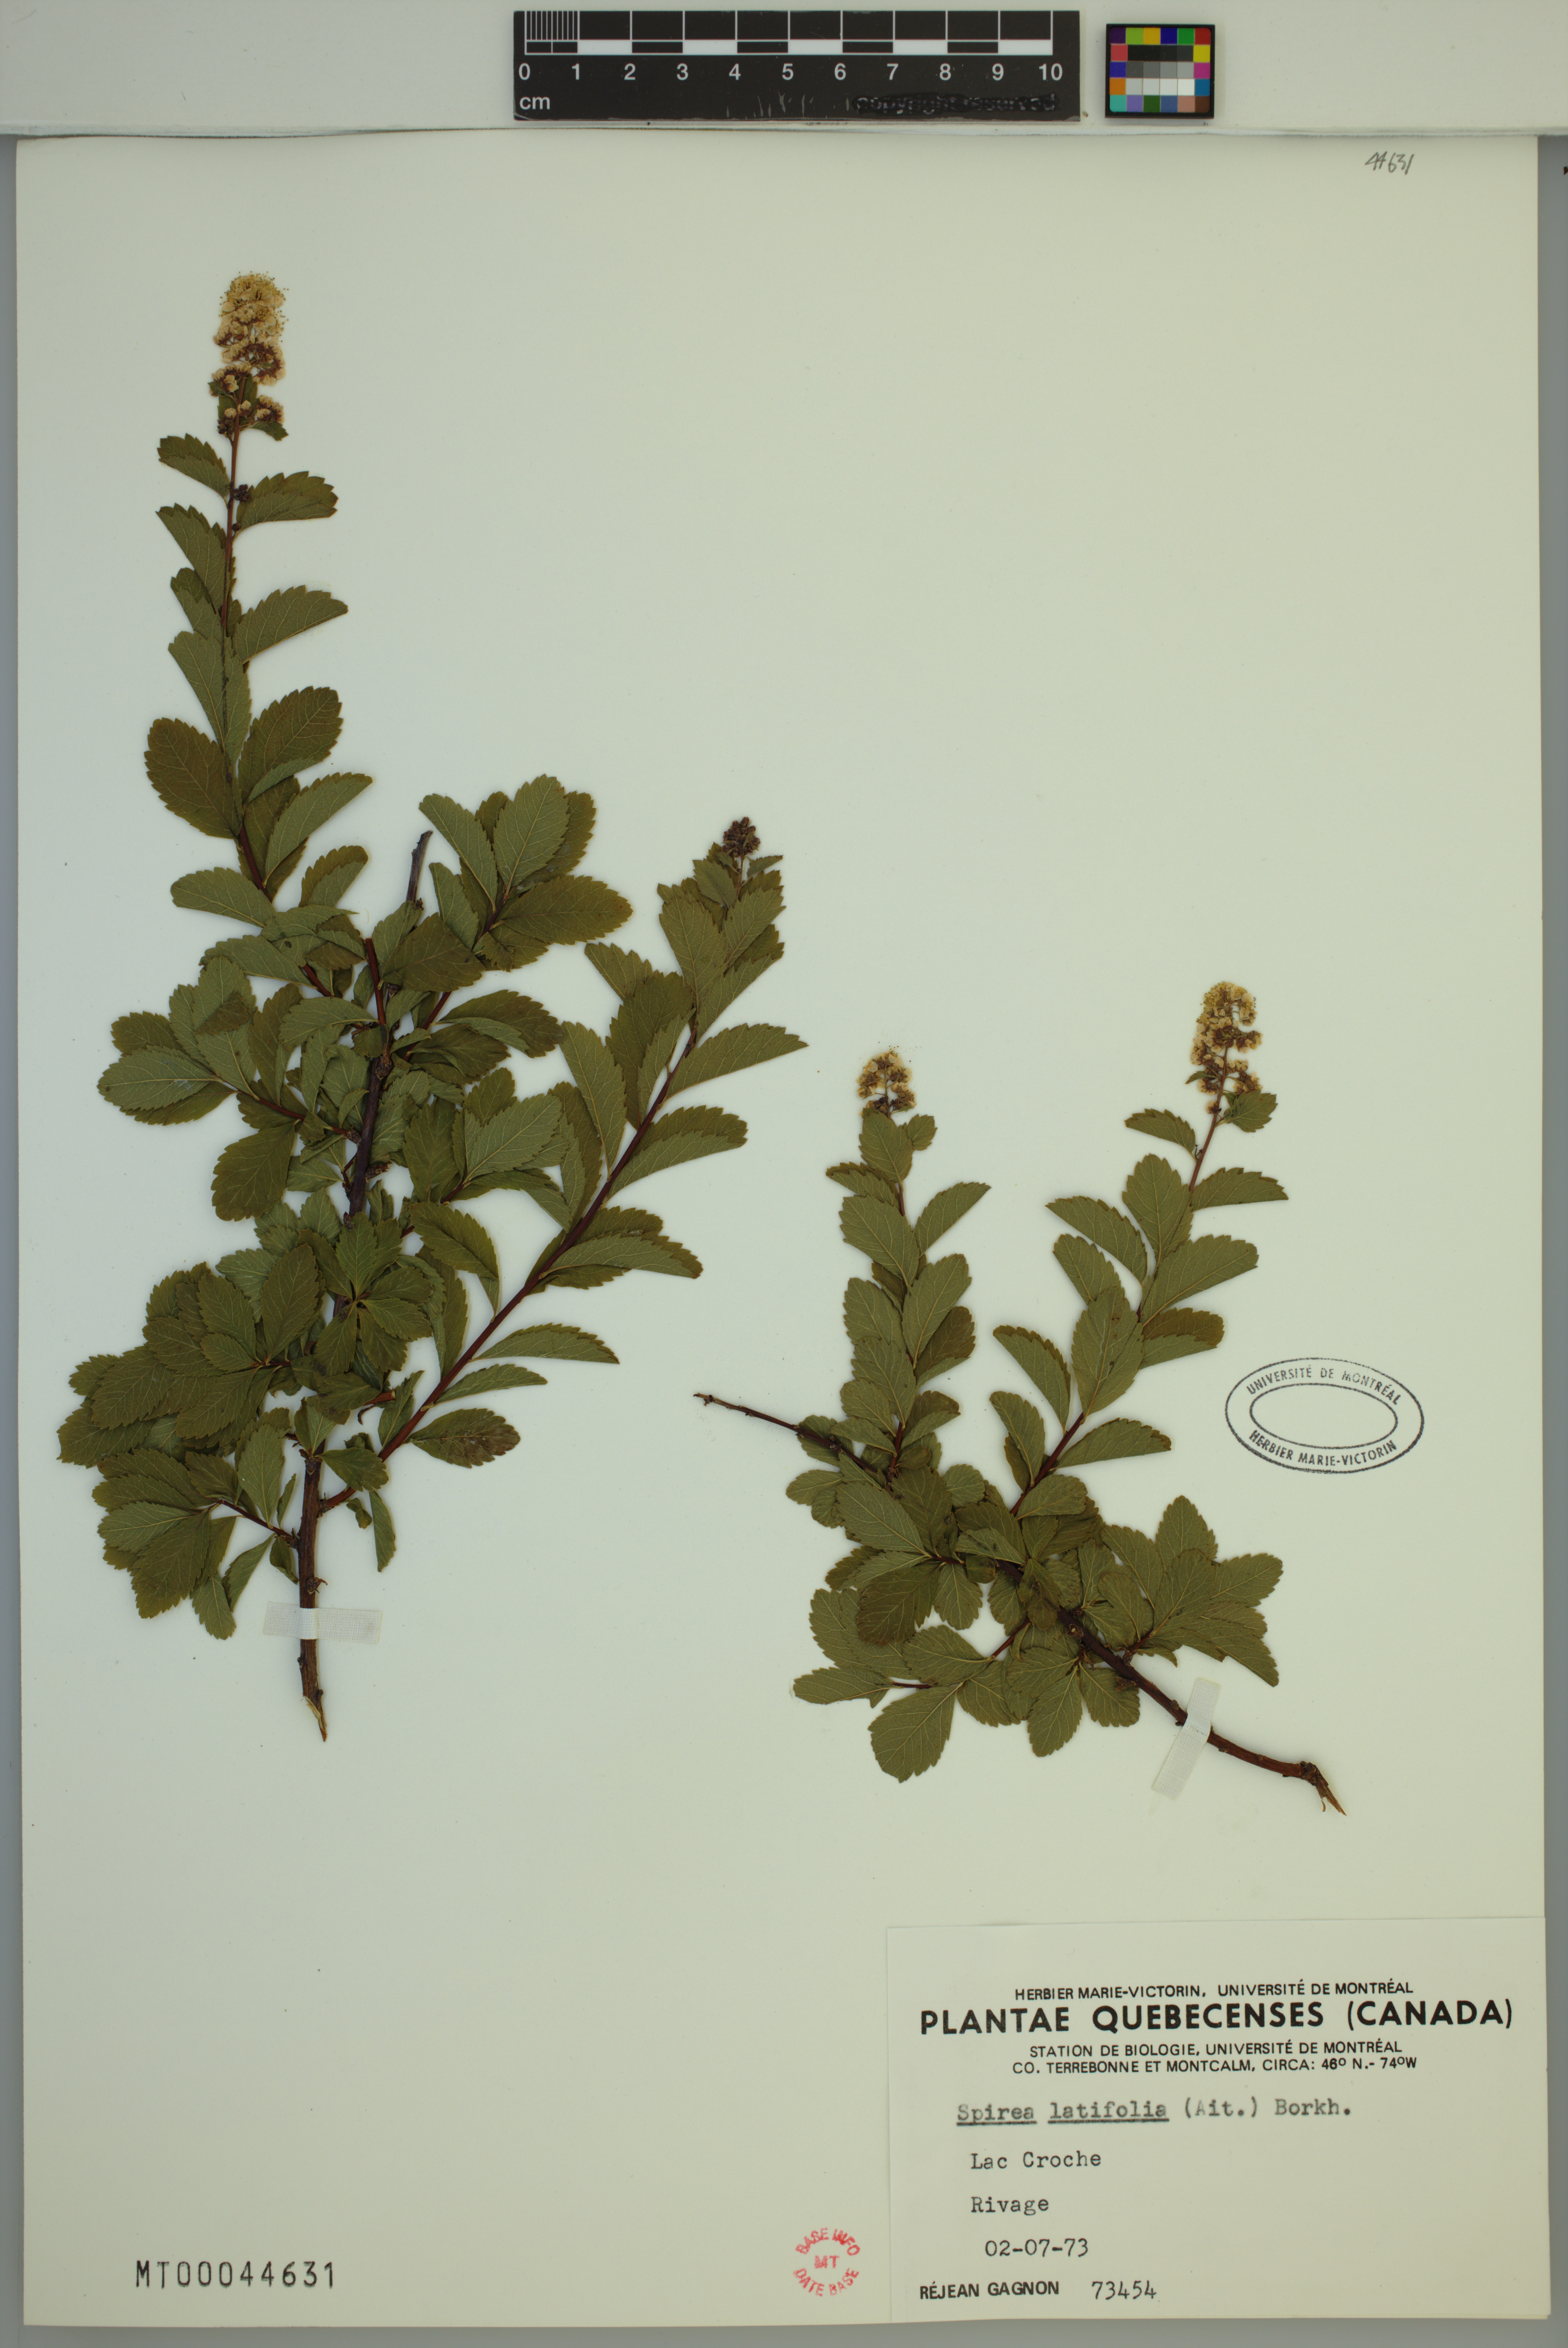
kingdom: Plantae
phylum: Tracheophyta
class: Magnoliopsida
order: Rosales
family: Rosaceae
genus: Spiraea
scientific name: Spiraea alba
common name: Pale bridewort
